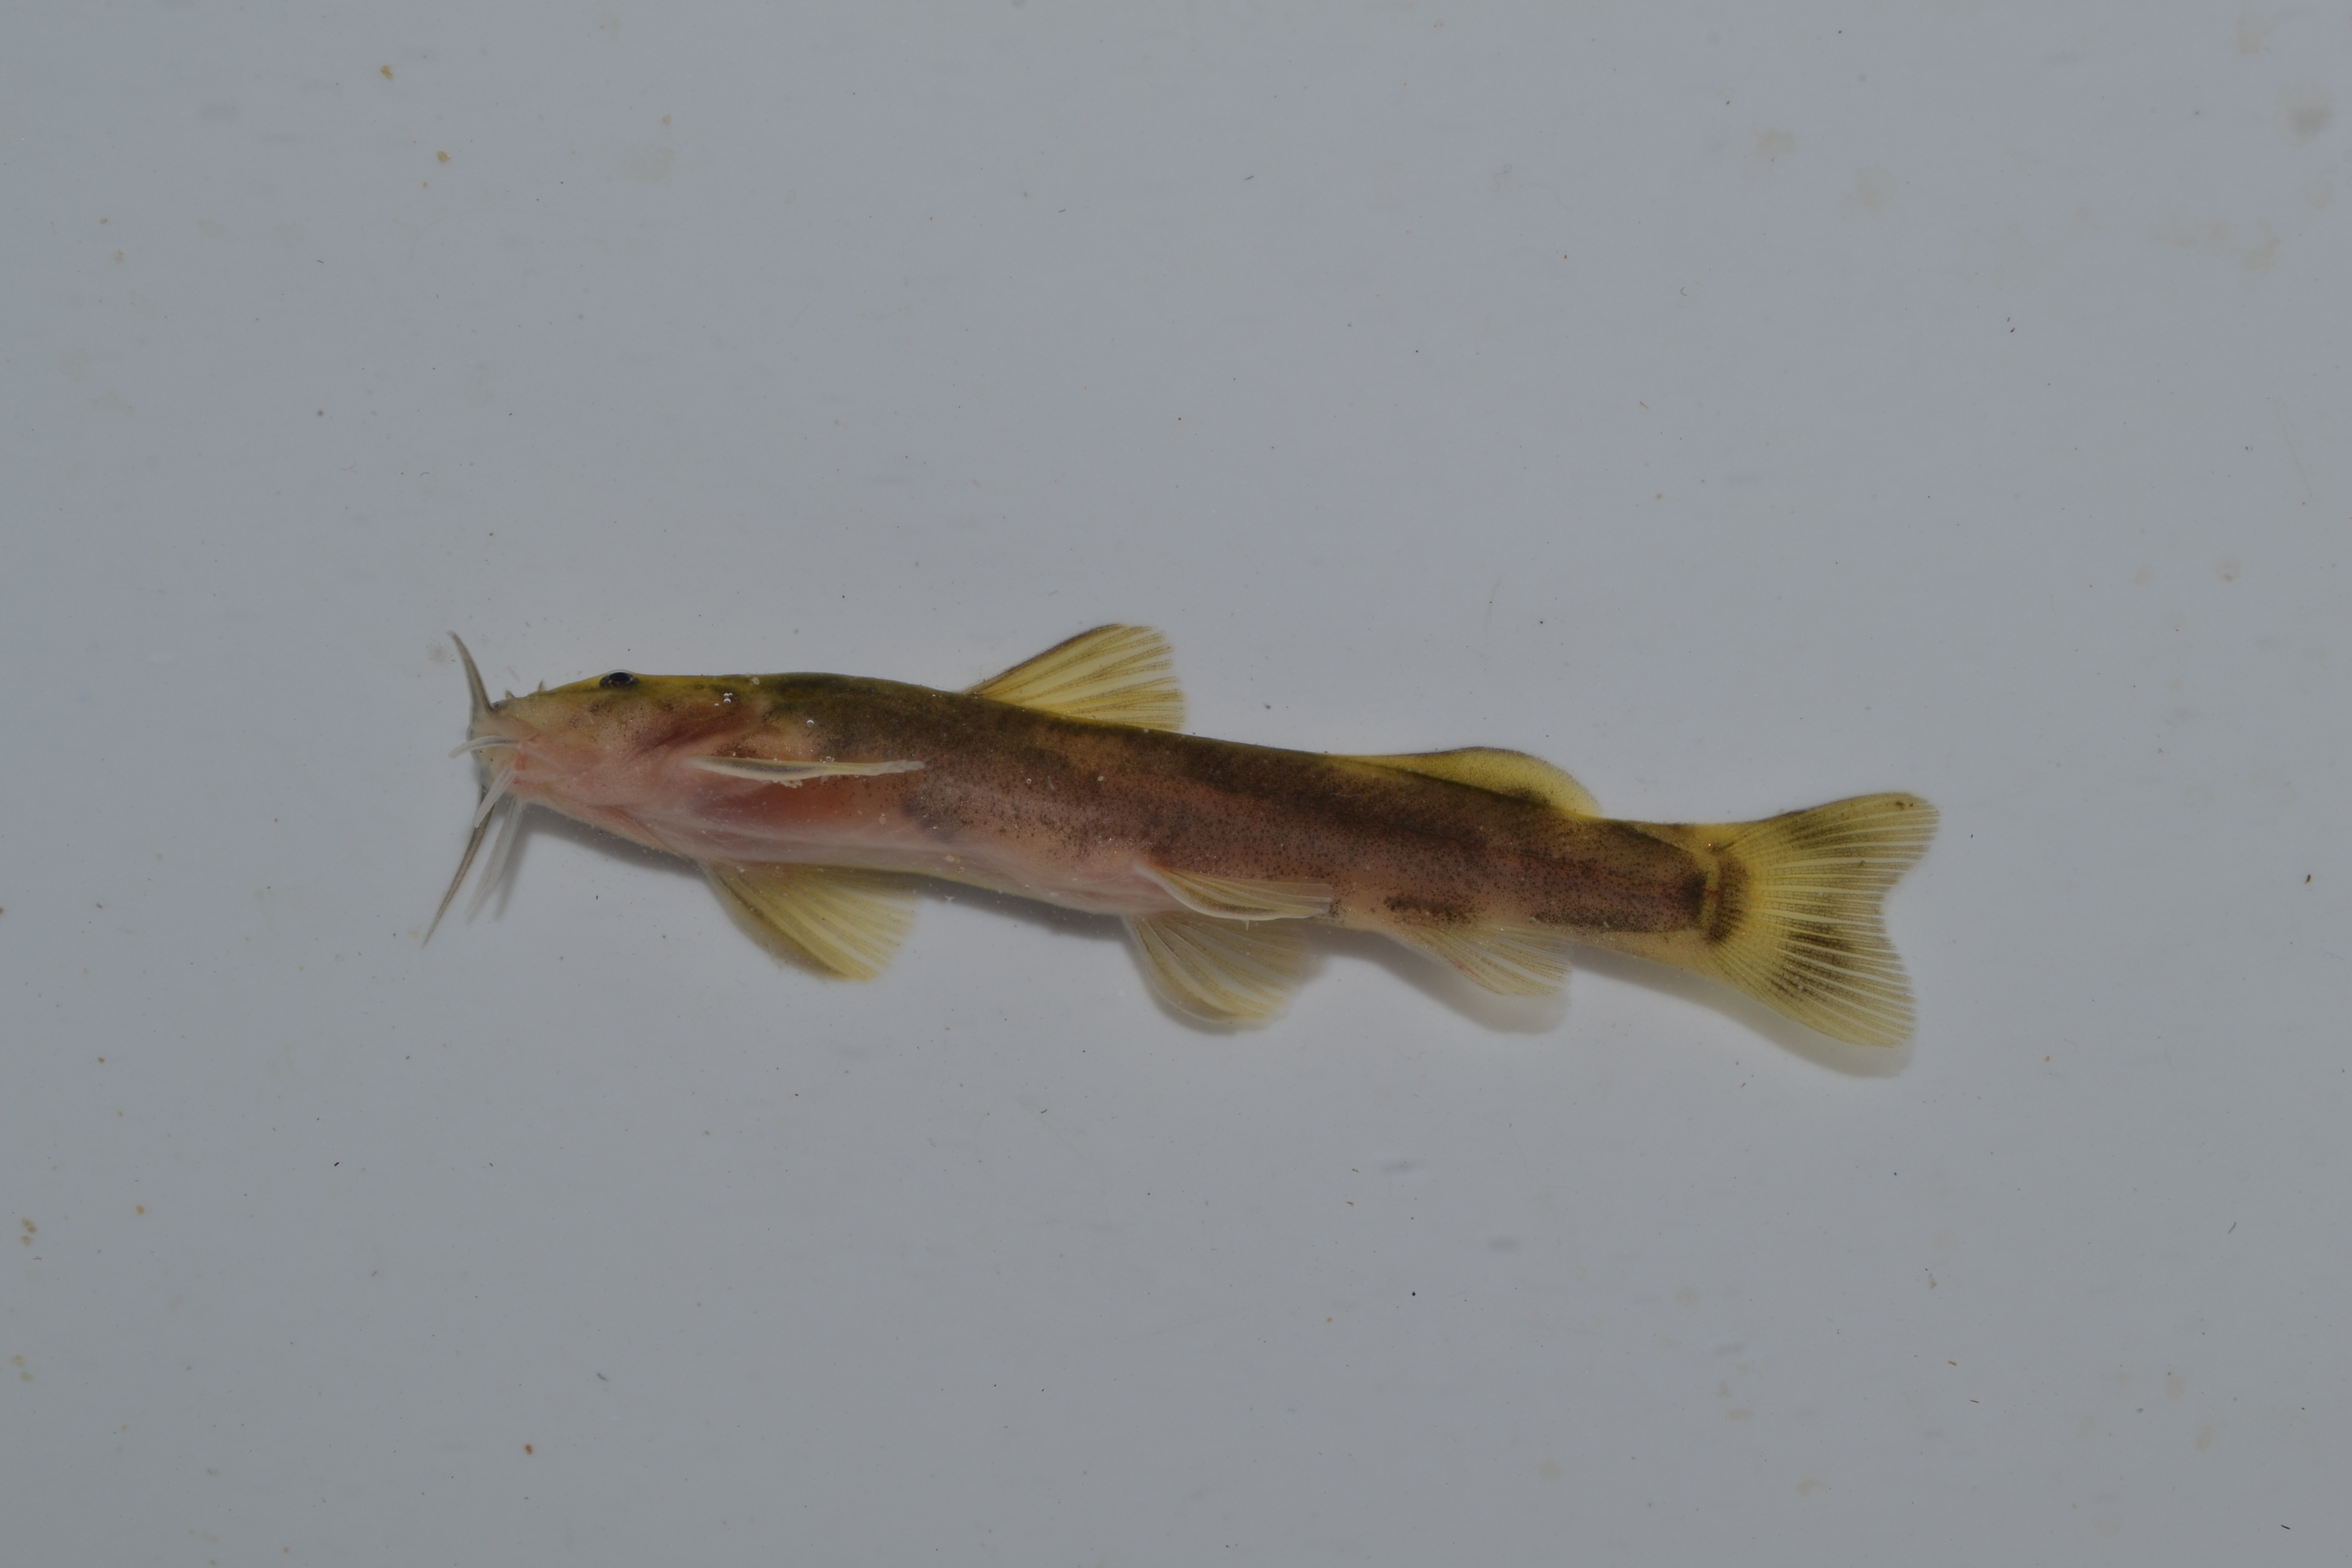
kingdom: Animalia
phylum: Chordata
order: Siluriformes
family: Amphiliidae
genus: Amphilius
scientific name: Amphilius uranoscopus
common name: Stargazer mountain catfish
